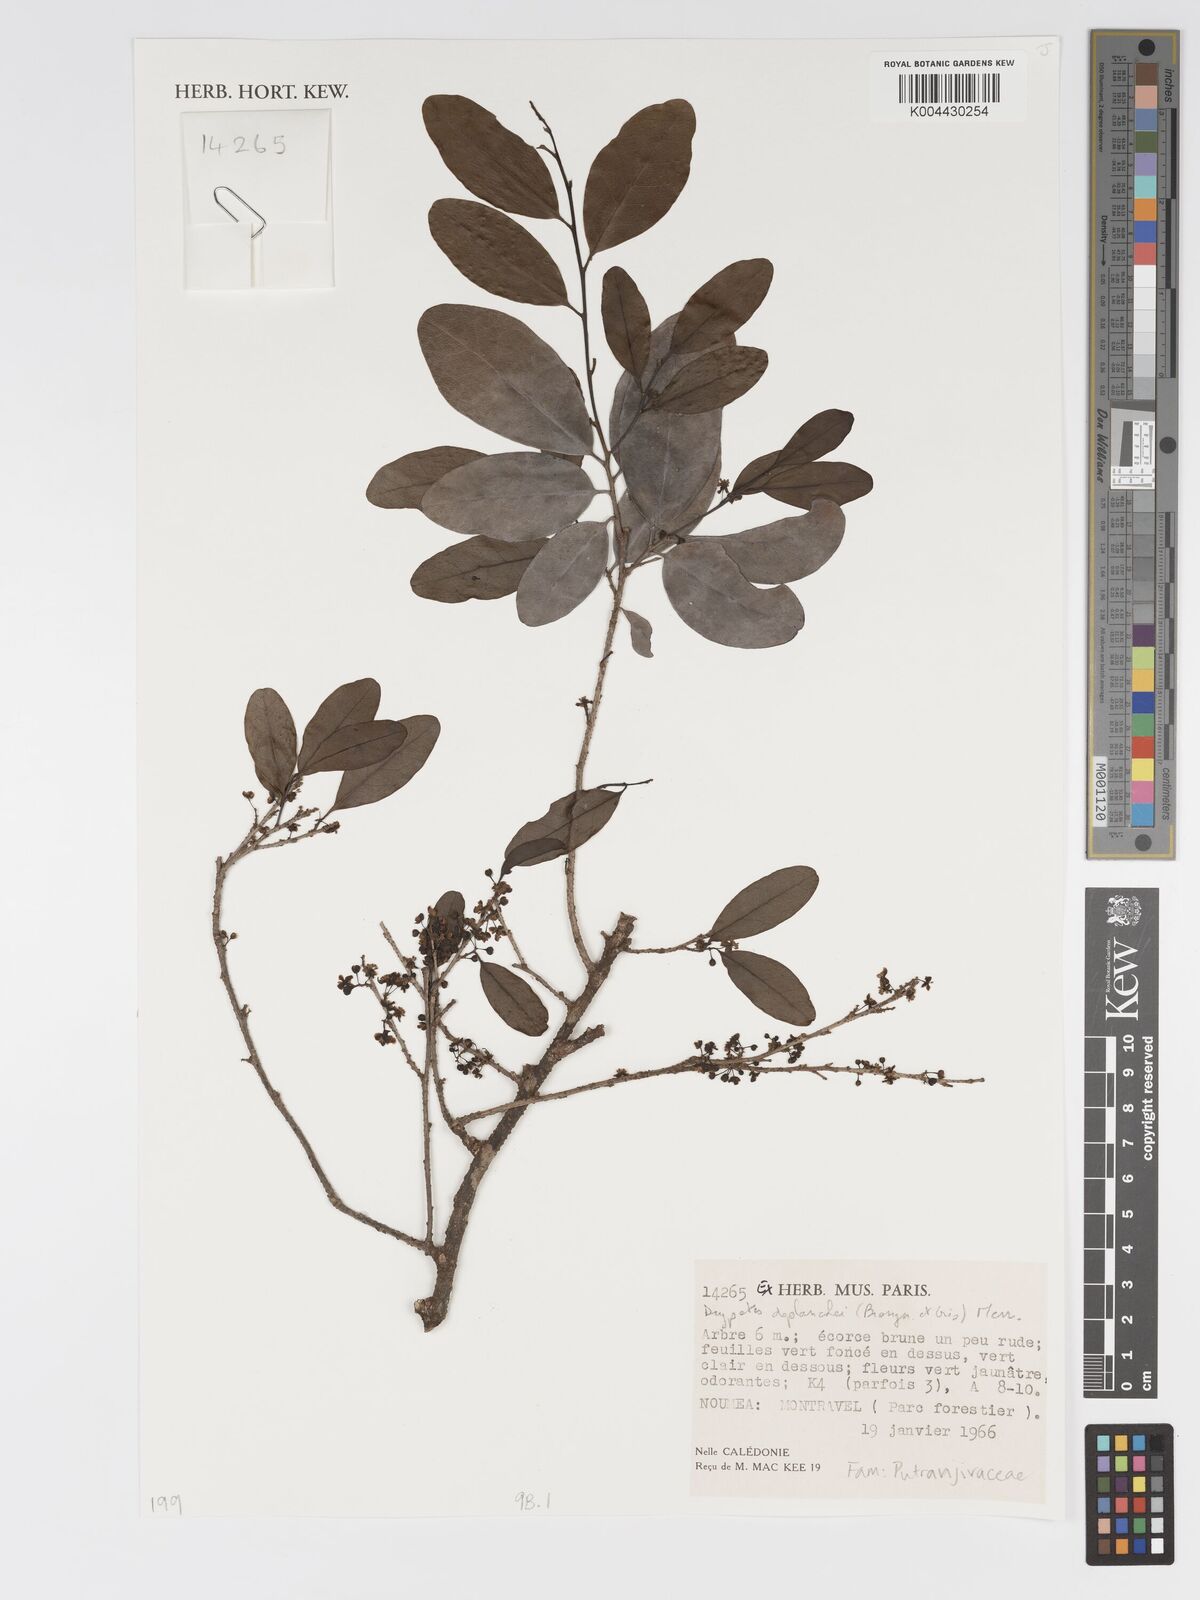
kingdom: Plantae
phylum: Tracheophyta
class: Magnoliopsida
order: Malpighiales
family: Putranjivaceae
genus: Drypetes
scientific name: Drypetes deplanchei
